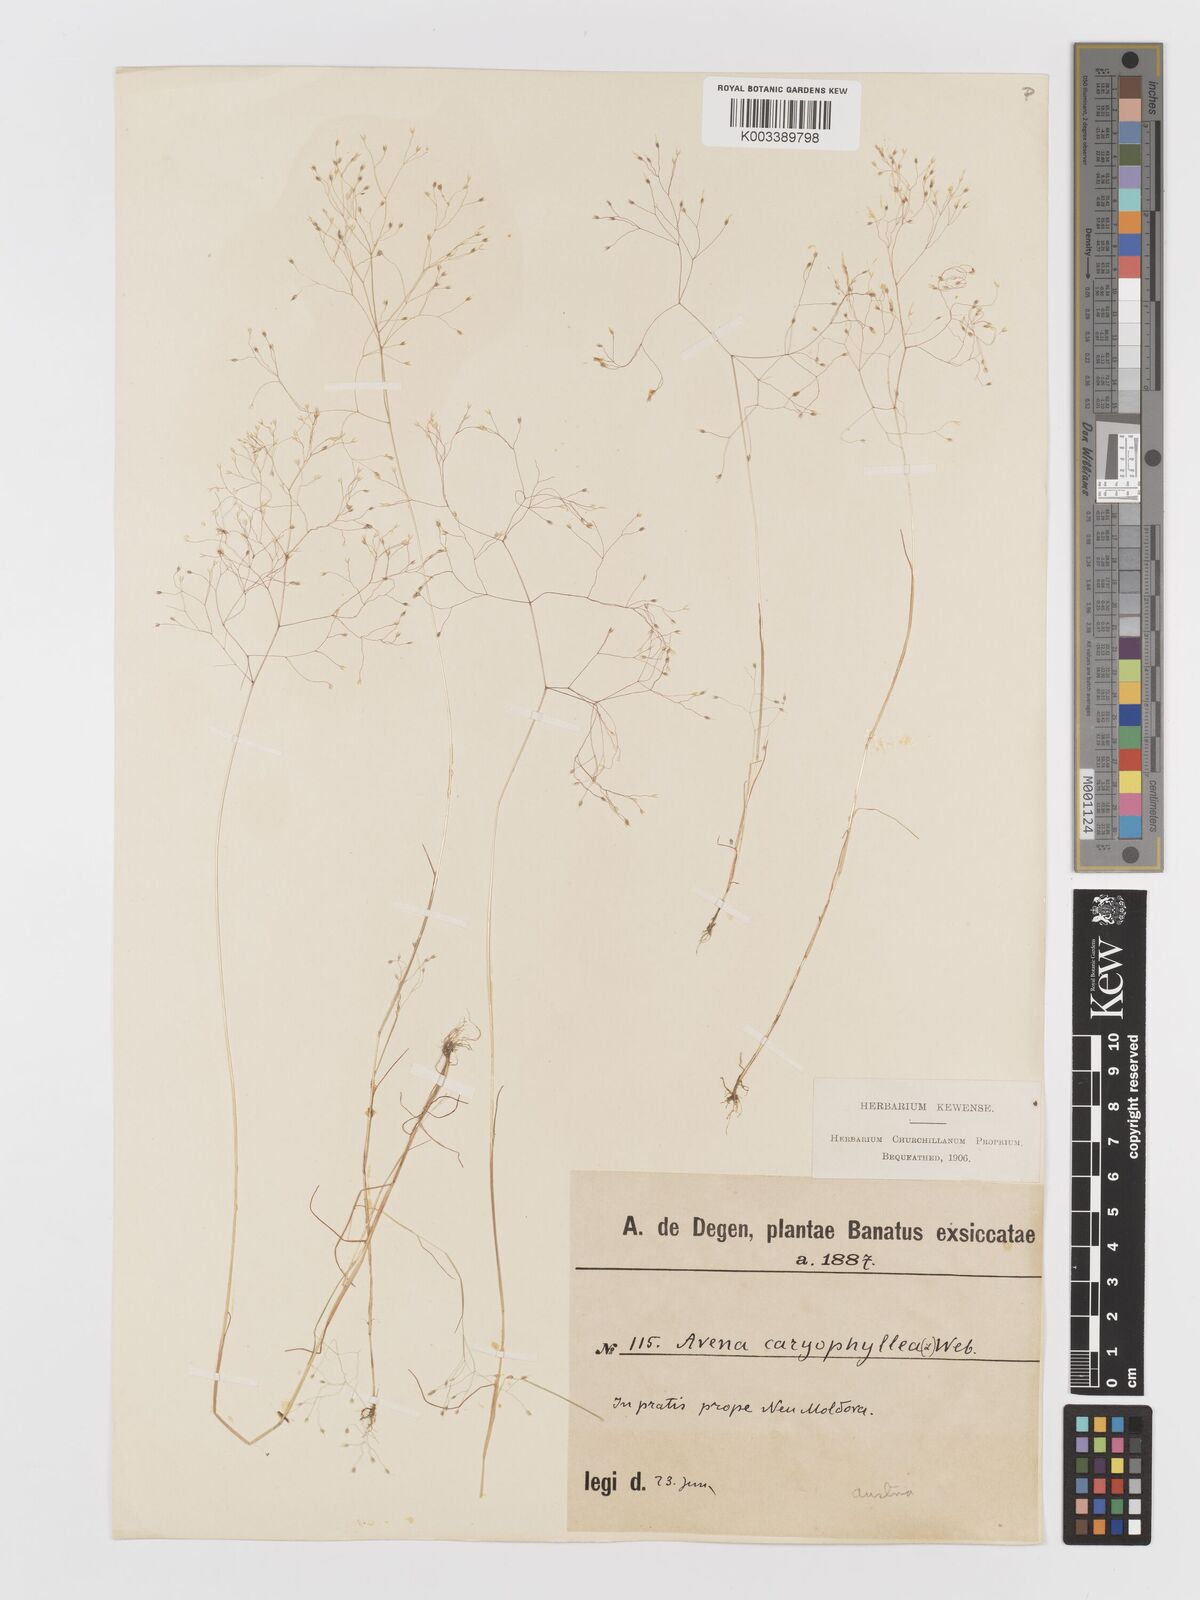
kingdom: Plantae
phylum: Tracheophyta
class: Liliopsida
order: Poales
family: Poaceae
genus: Aira
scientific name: Aira elegans
